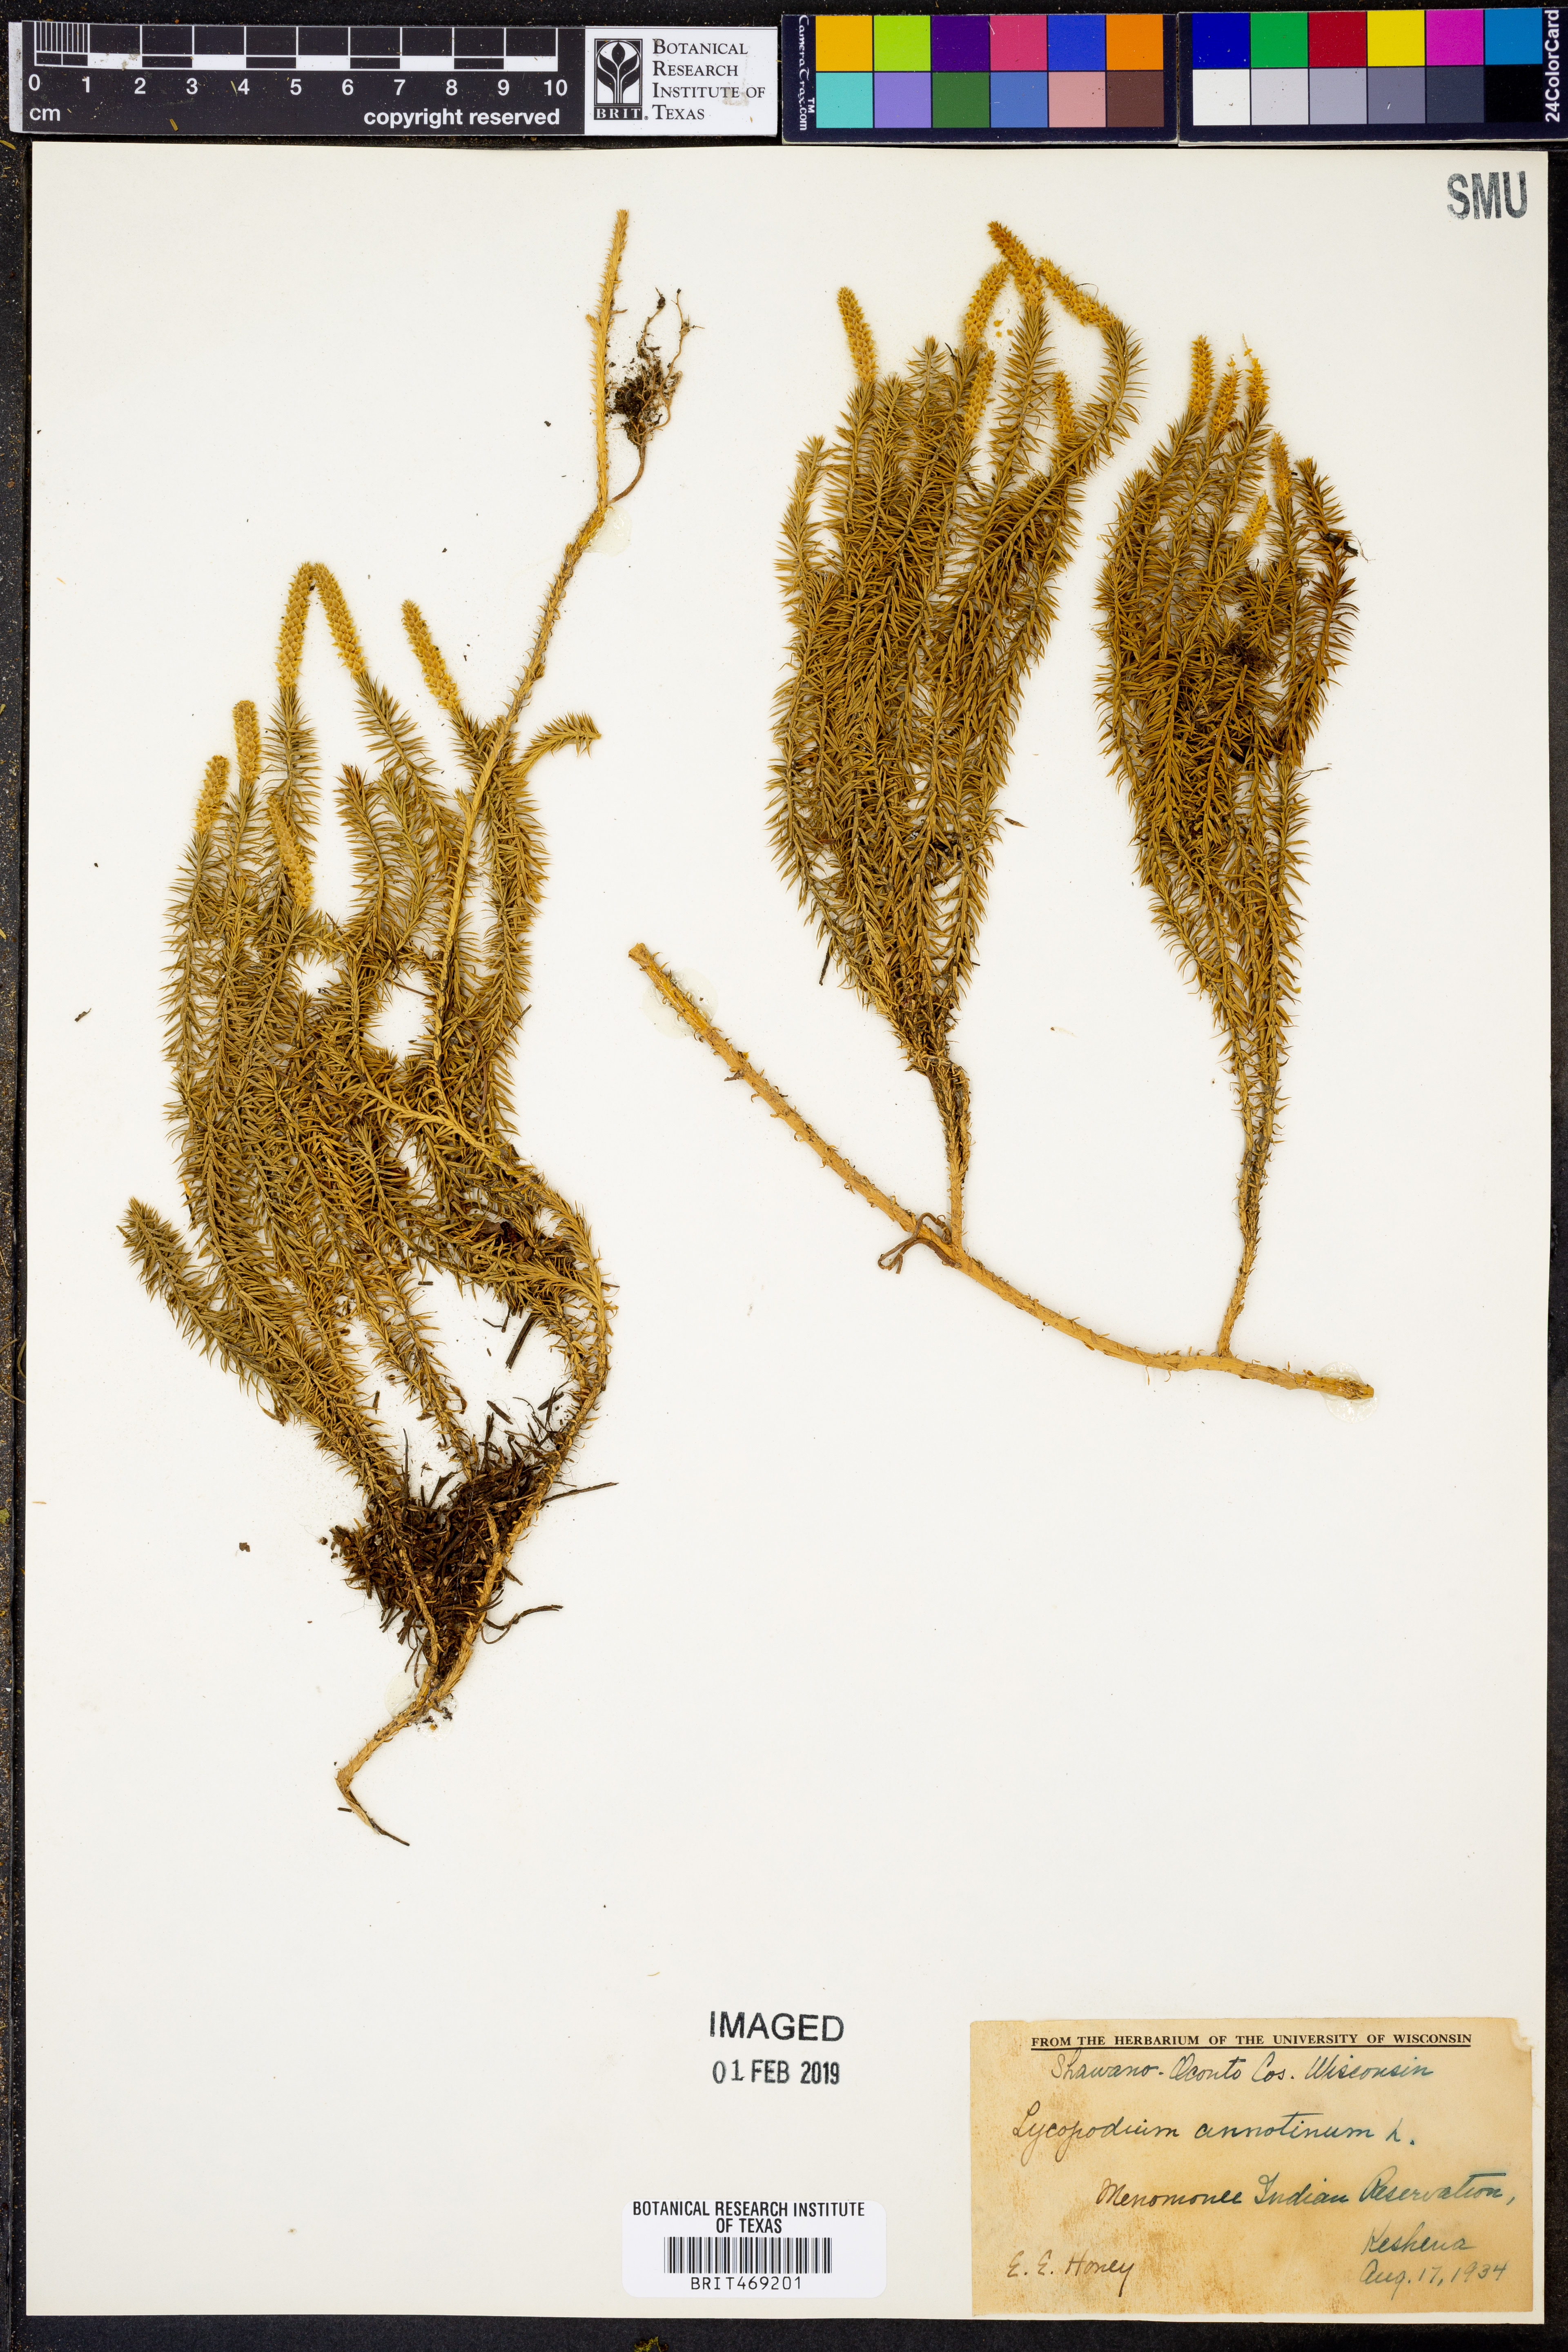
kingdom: Plantae
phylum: Tracheophyta
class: Lycopodiopsida
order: Lycopodiales
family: Lycopodiaceae
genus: Spinulum
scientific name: Spinulum annotinum
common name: Interrupted club-moss
